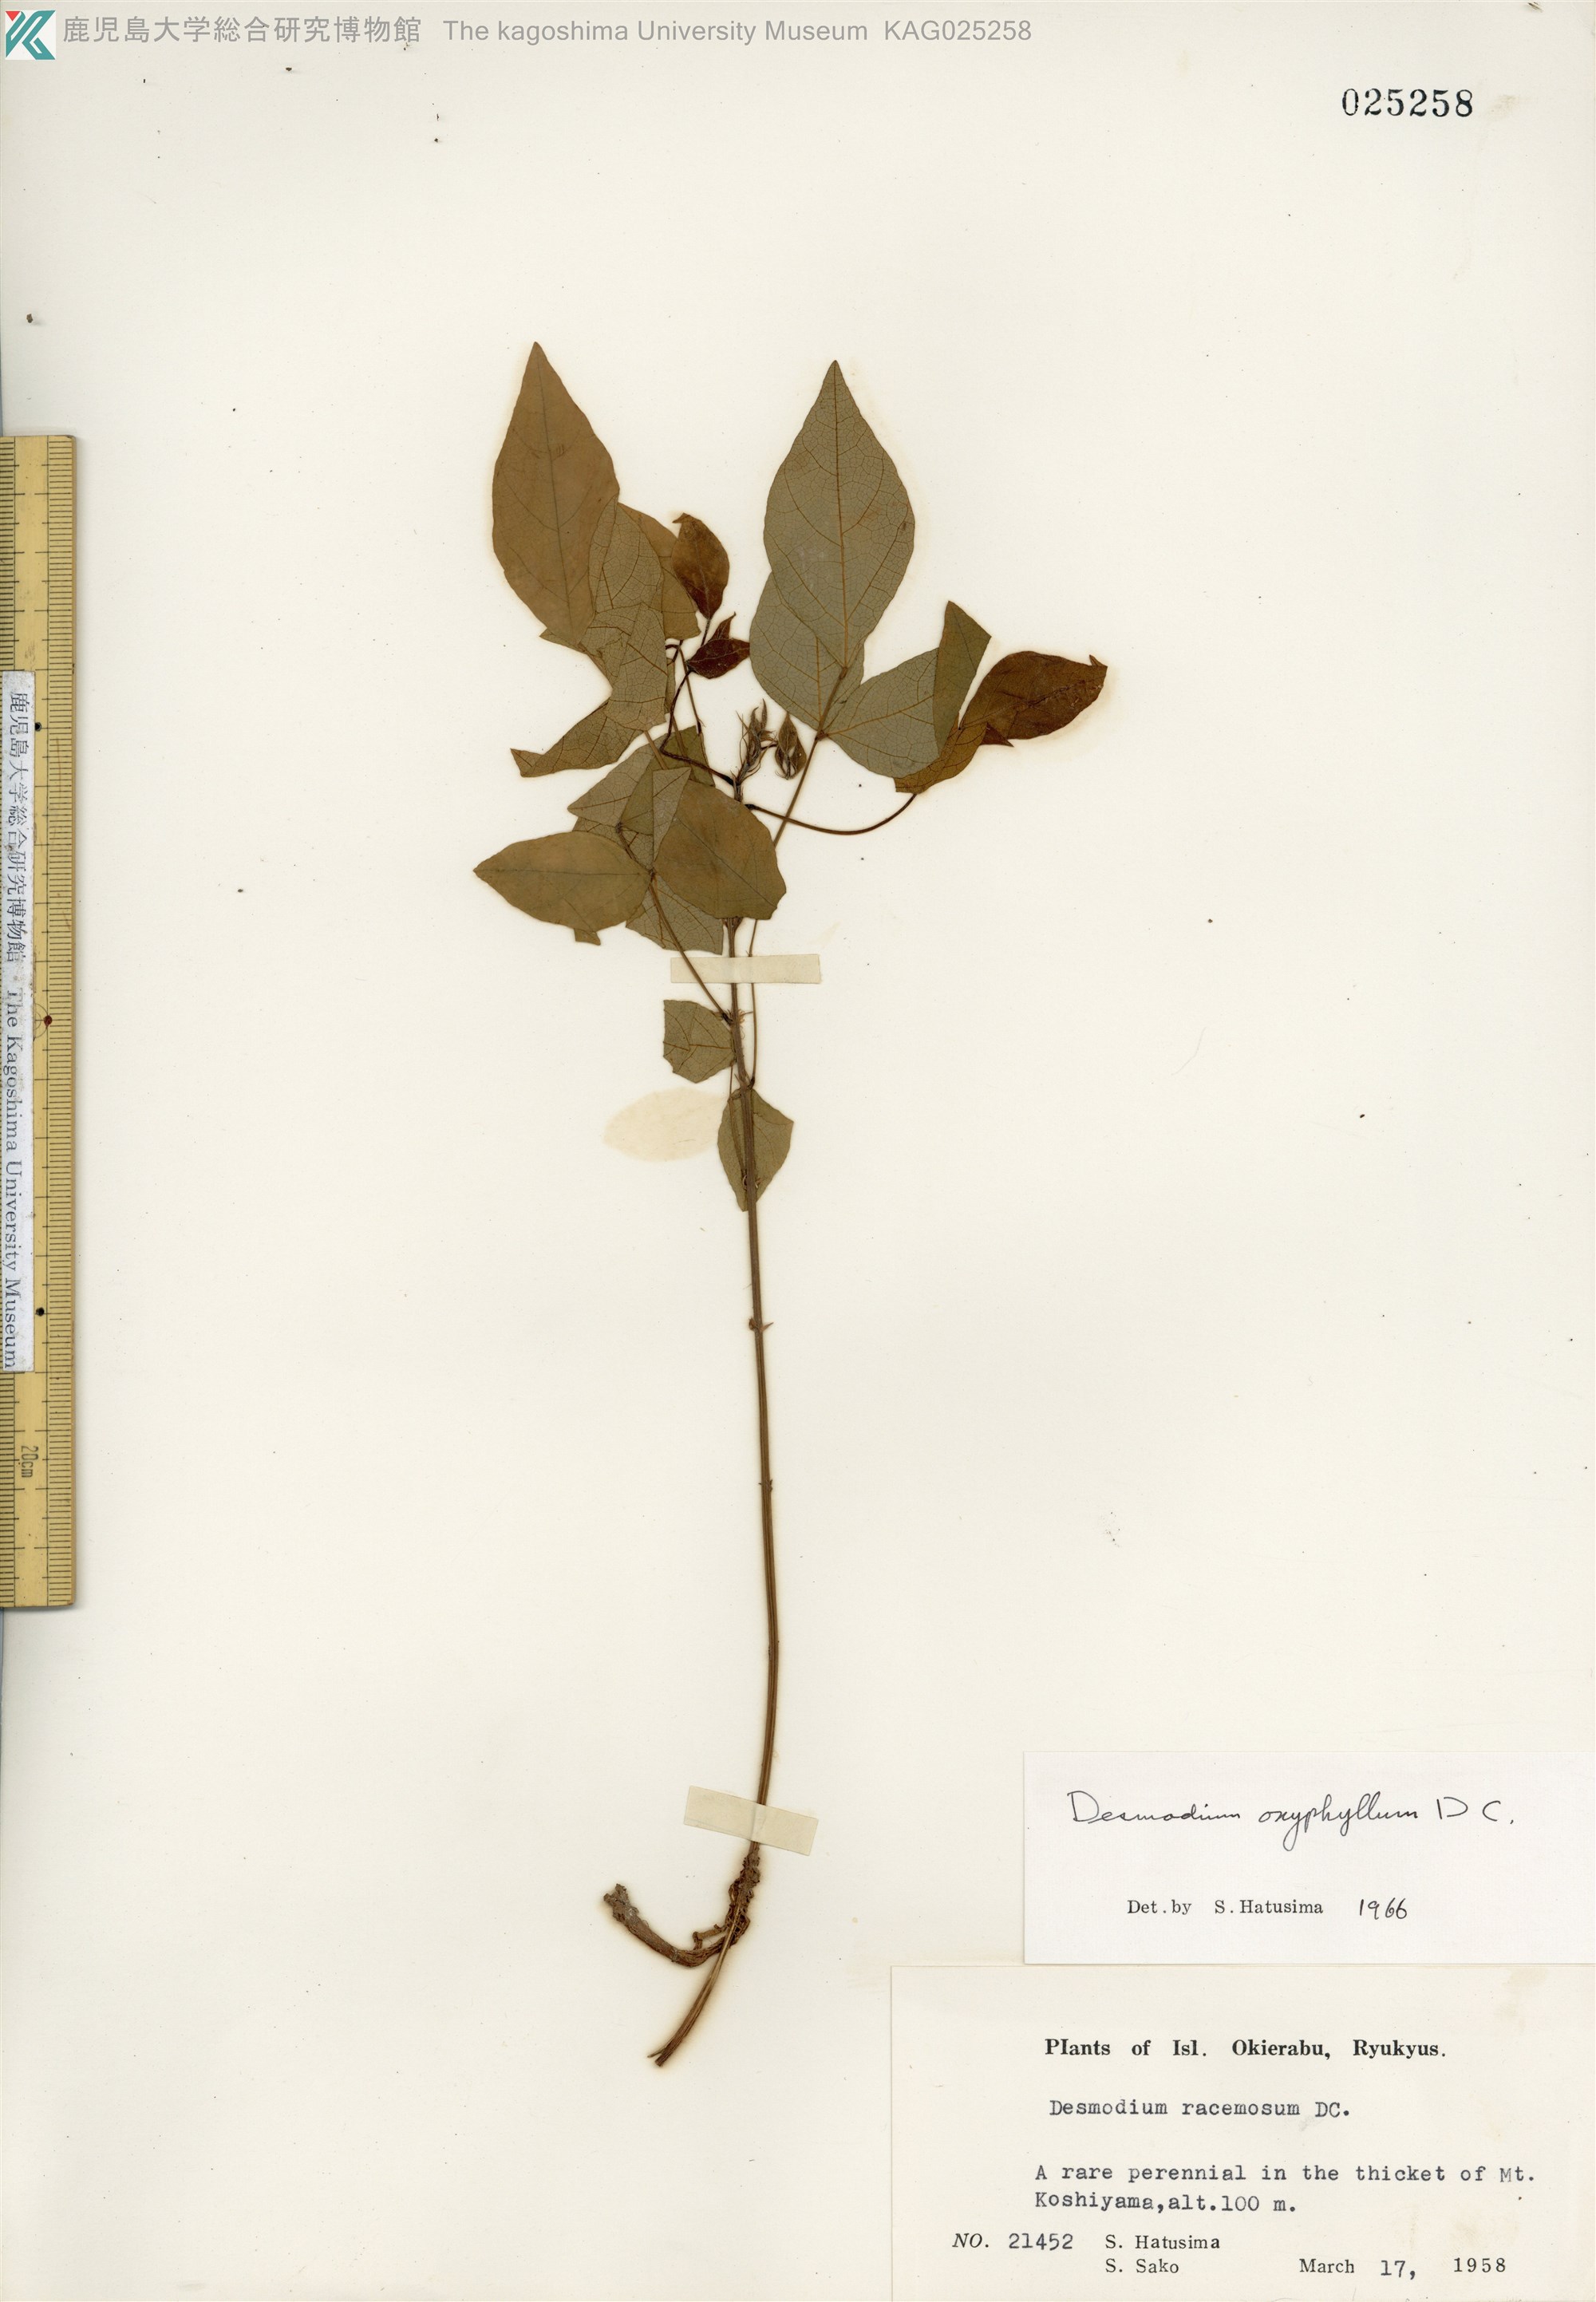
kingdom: Plantae
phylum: Tracheophyta
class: Magnoliopsida
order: Fabales
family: Fabaceae
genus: Hylodesmum
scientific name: Hylodesmum podocarpum
